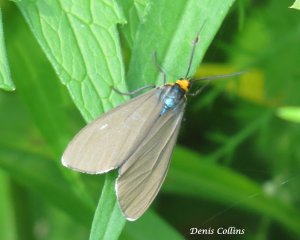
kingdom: Animalia
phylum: Arthropoda
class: Insecta
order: Lepidoptera
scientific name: Lepidoptera
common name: Butterflies
